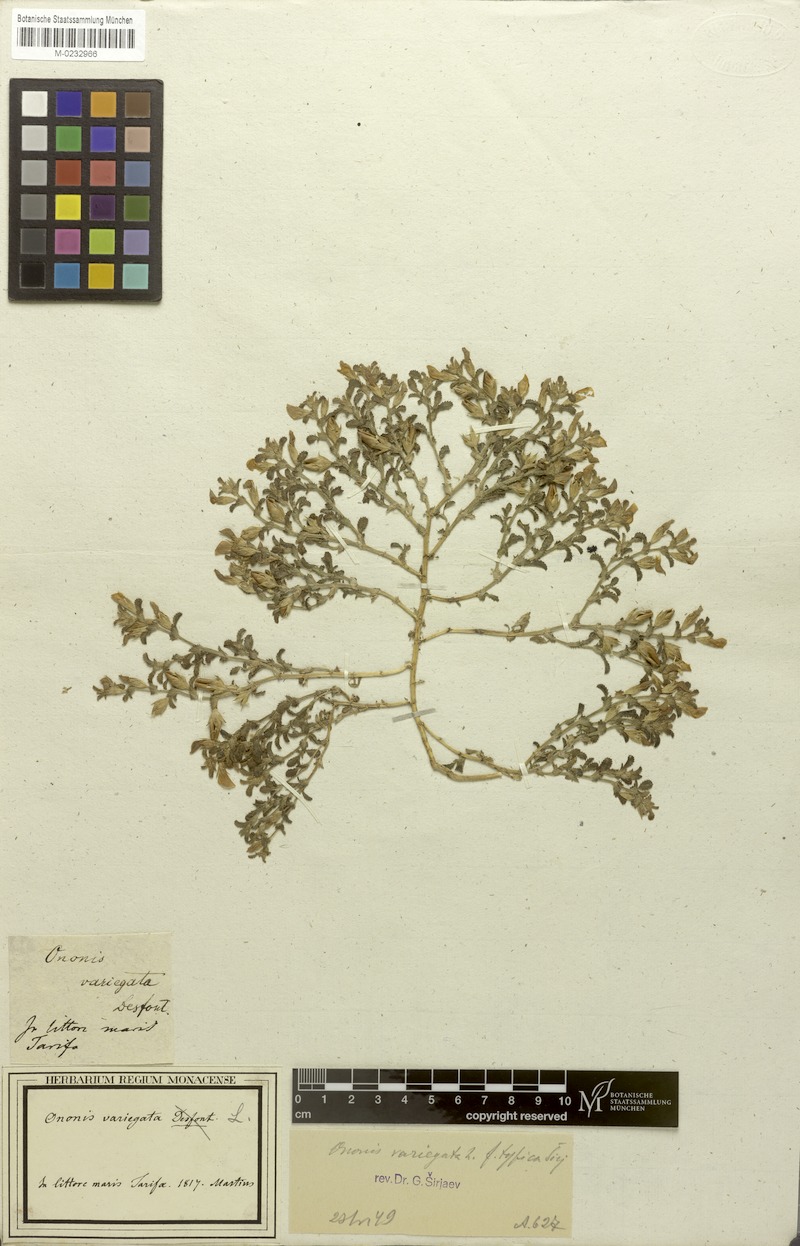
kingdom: Plantae
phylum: Tracheophyta
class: Magnoliopsida
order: Fabales
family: Fabaceae
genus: Ononis
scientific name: Ononis variegata
